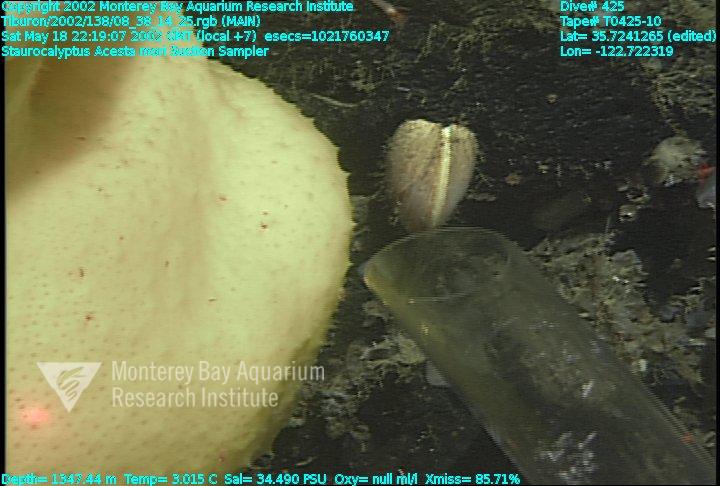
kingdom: Animalia
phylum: Porifera
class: Hexactinellida
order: Lyssacinosida
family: Rossellidae
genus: Staurocalyptus
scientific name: Staurocalyptus
